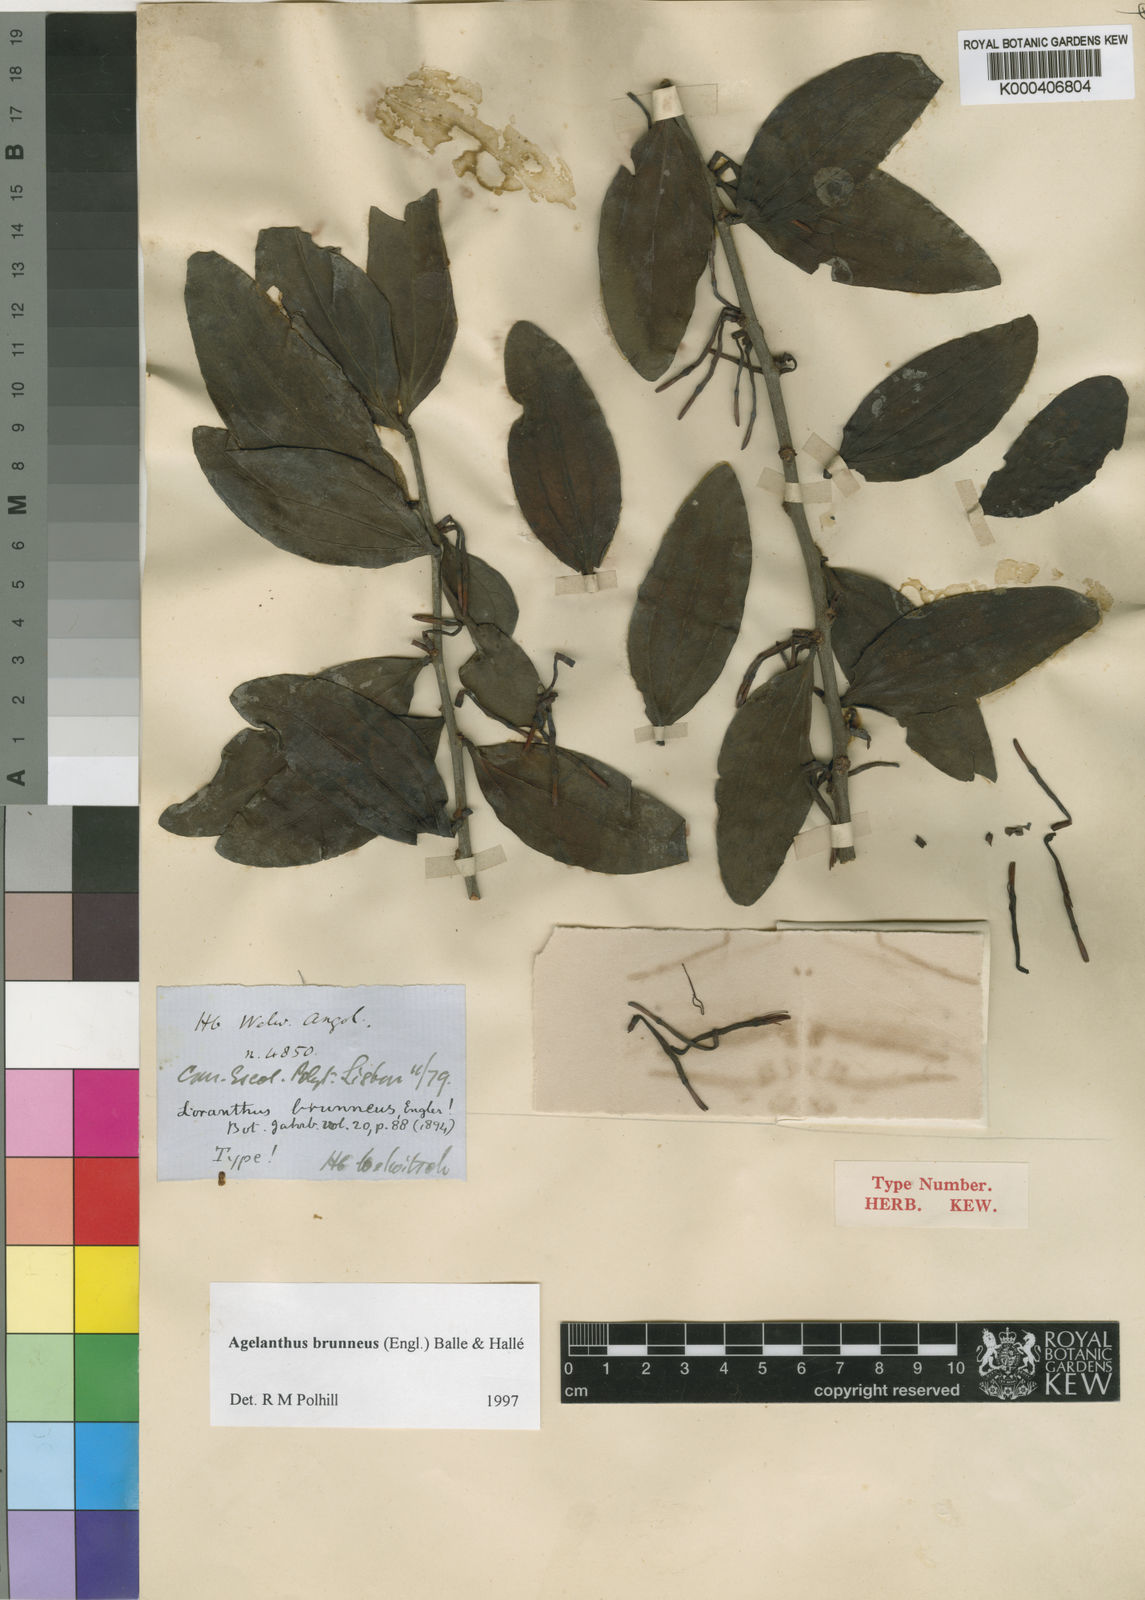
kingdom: Plantae
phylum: Tracheophyta
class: Magnoliopsida
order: Santalales
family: Loranthaceae
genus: Agelanthus
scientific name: Agelanthus
